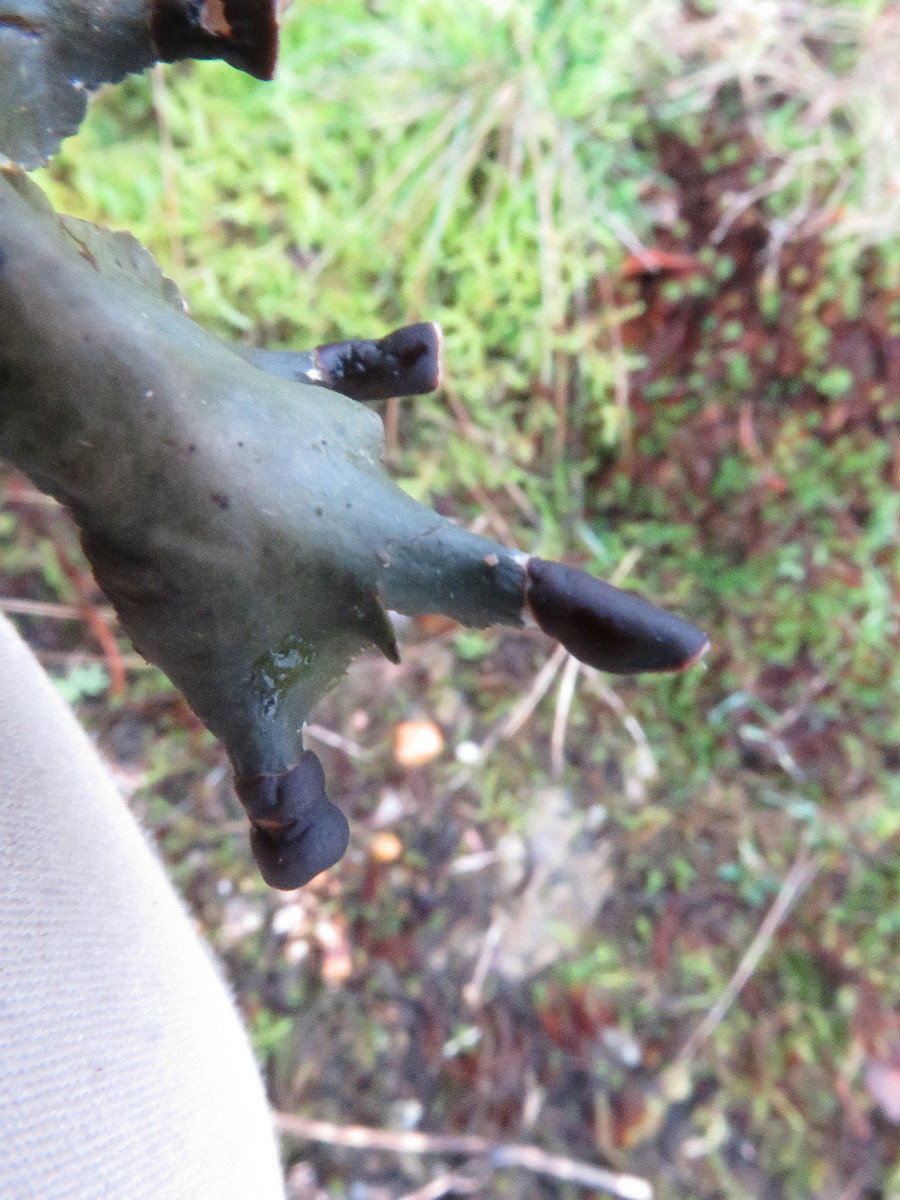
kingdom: Fungi
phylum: Ascomycota
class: Lecanoromycetes
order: Peltigerales
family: Peltigeraceae
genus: Peltigera
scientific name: Peltigera neckeri
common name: glinsende skjoldlav
